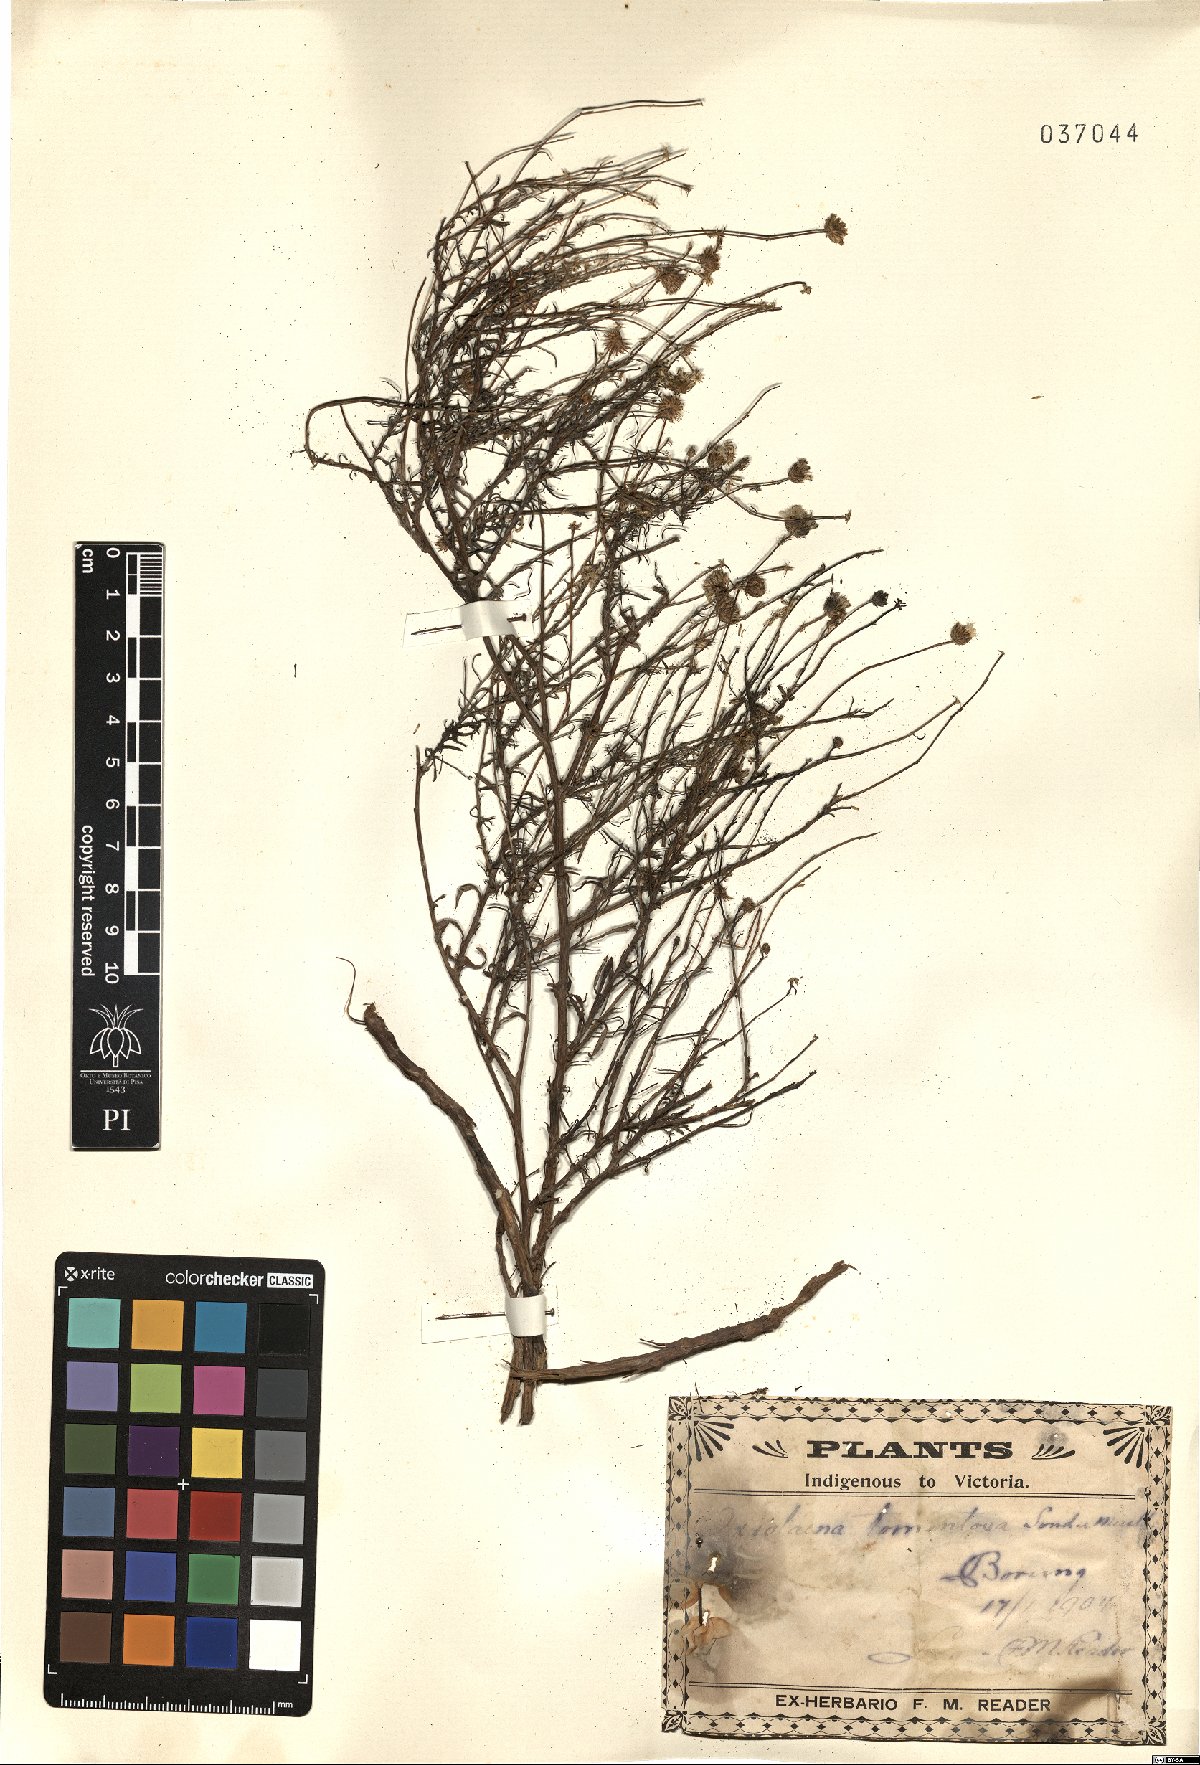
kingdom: Plantae
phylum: Tracheophyta
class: Magnoliopsida
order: Asterales
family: Asteraceae
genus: Leiocarpa
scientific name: Leiocarpa tomentosa
